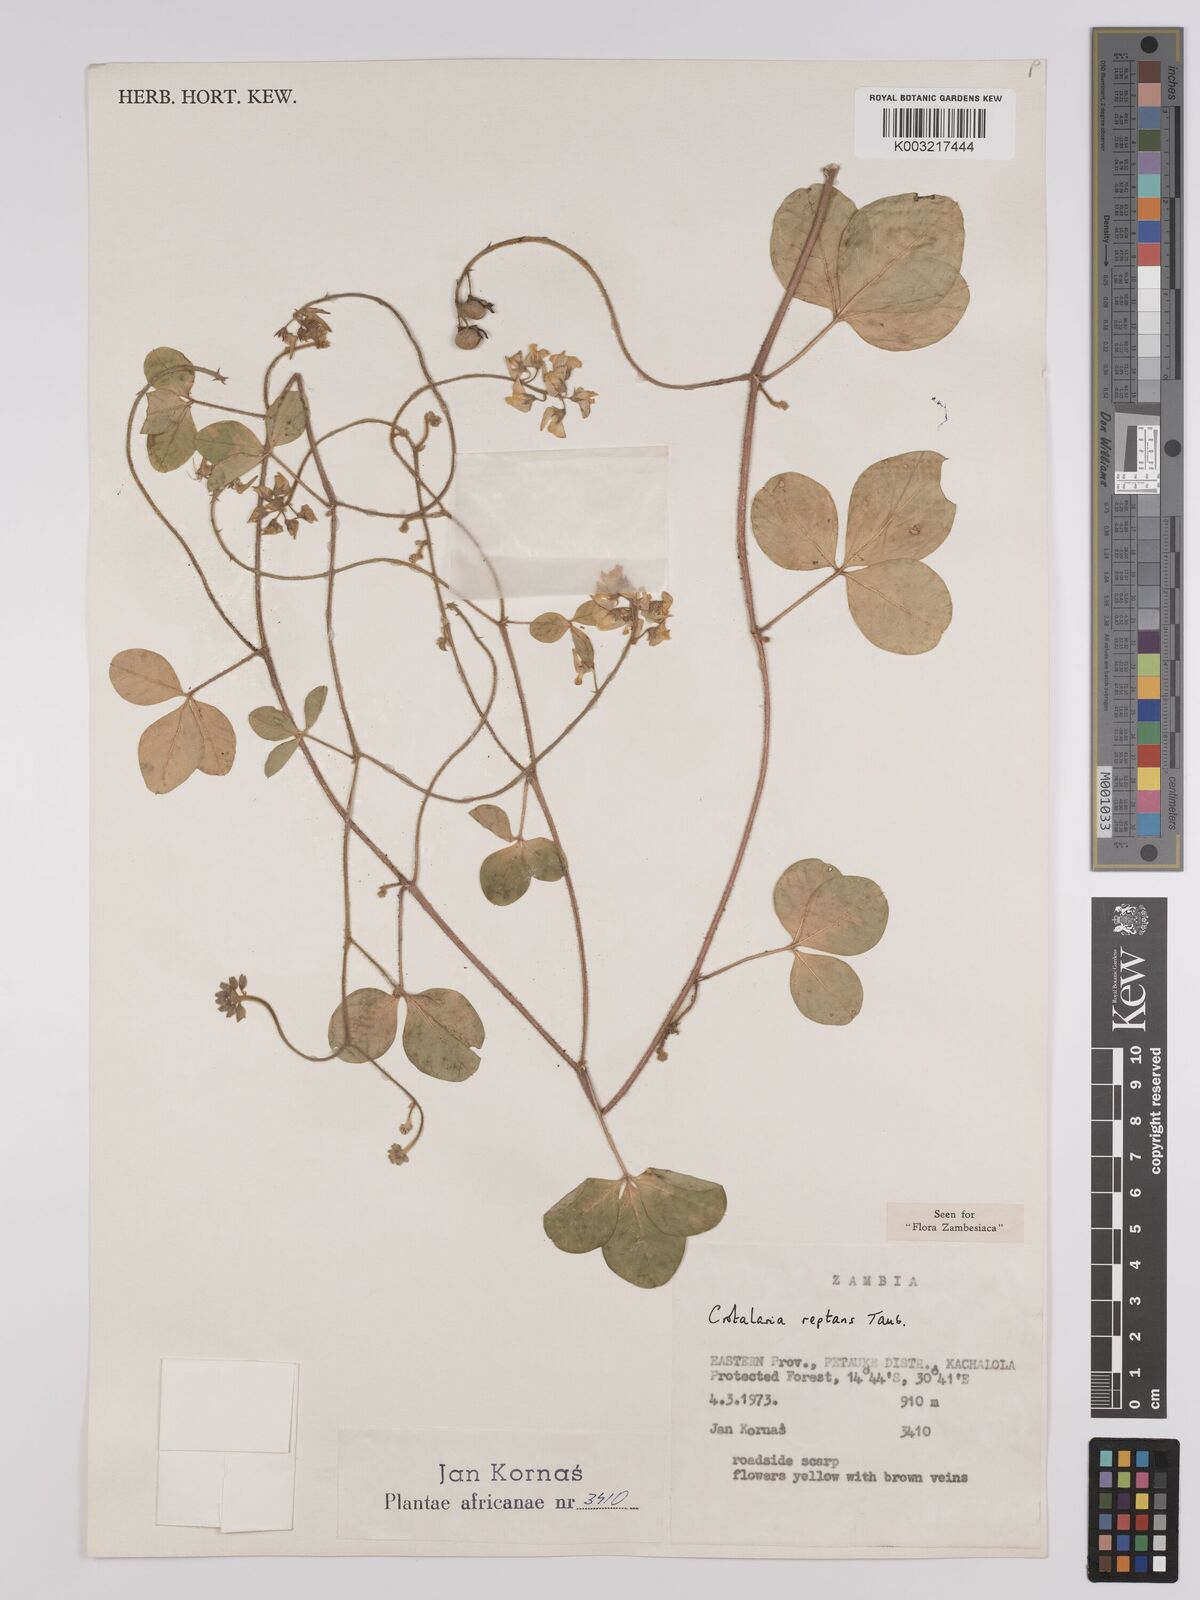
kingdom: Plantae
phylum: Tracheophyta
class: Magnoliopsida
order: Fabales
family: Fabaceae
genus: Crotalaria
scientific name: Crotalaria reptans
